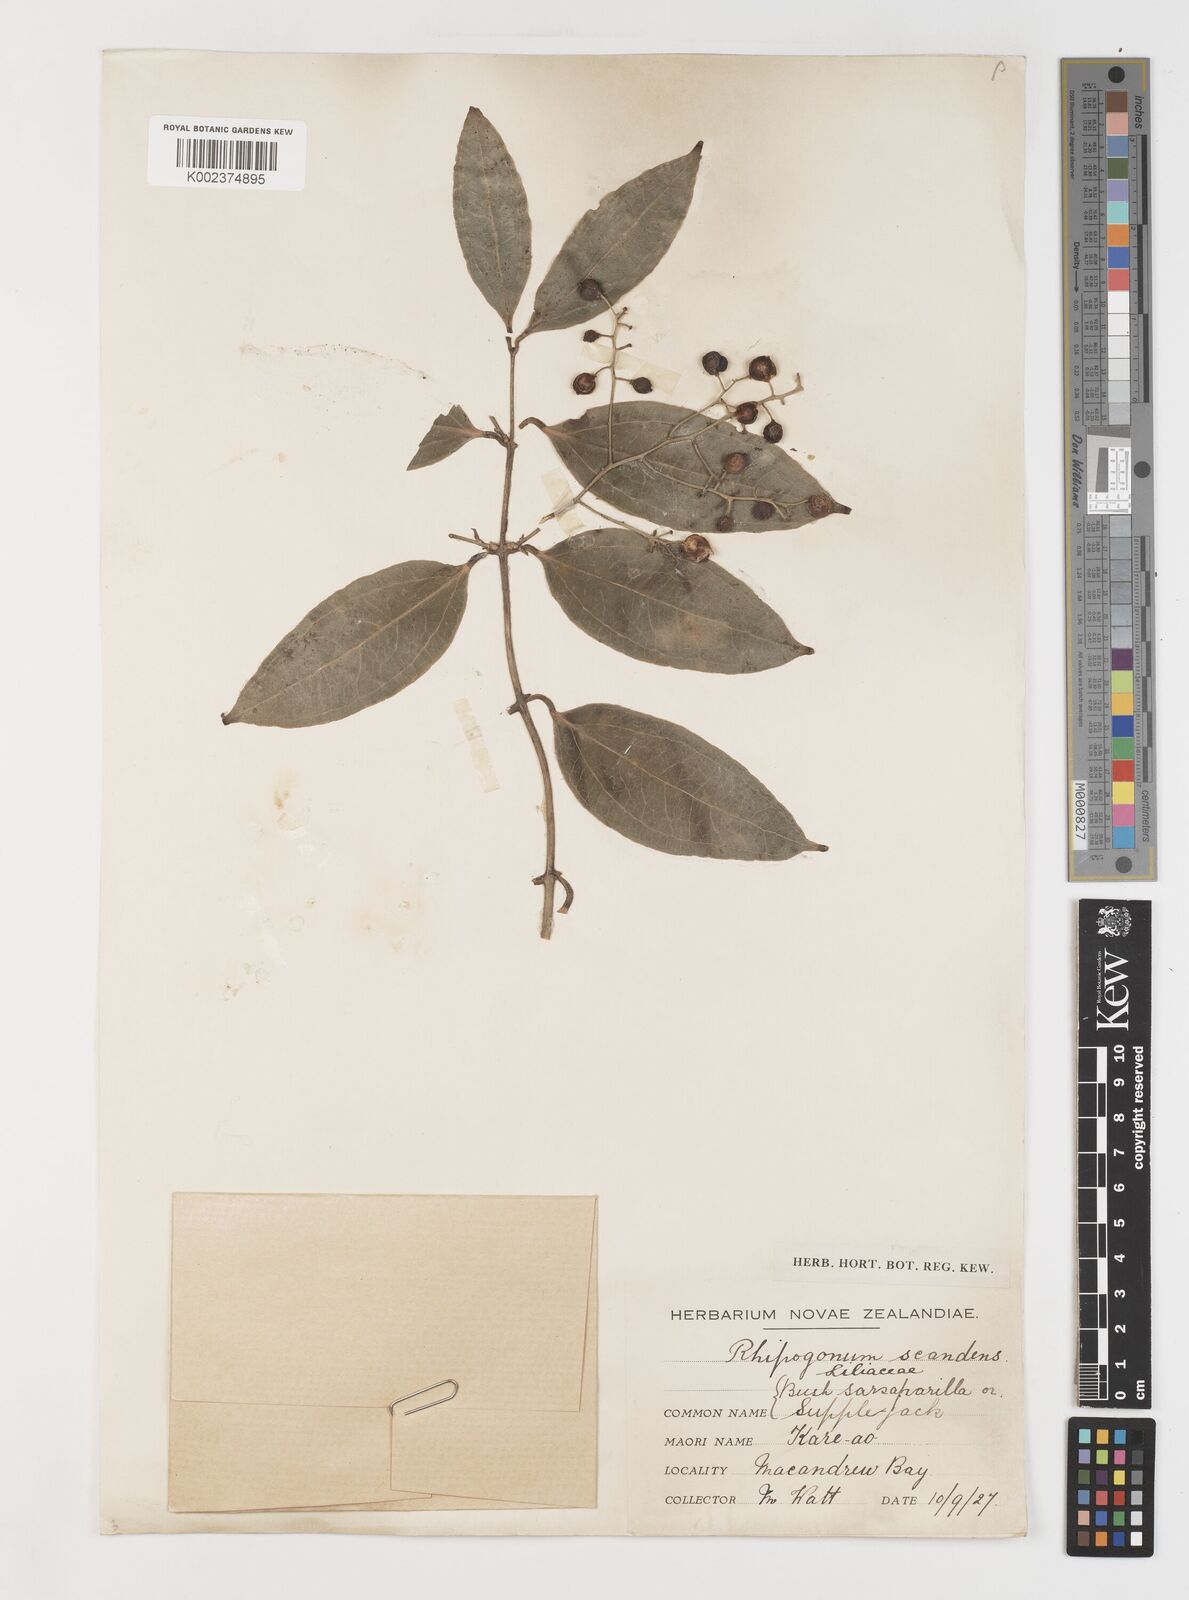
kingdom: Plantae
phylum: Tracheophyta
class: Liliopsida
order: Liliales
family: Ripogonaceae
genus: Ripogonum
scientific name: Ripogonum scandens
